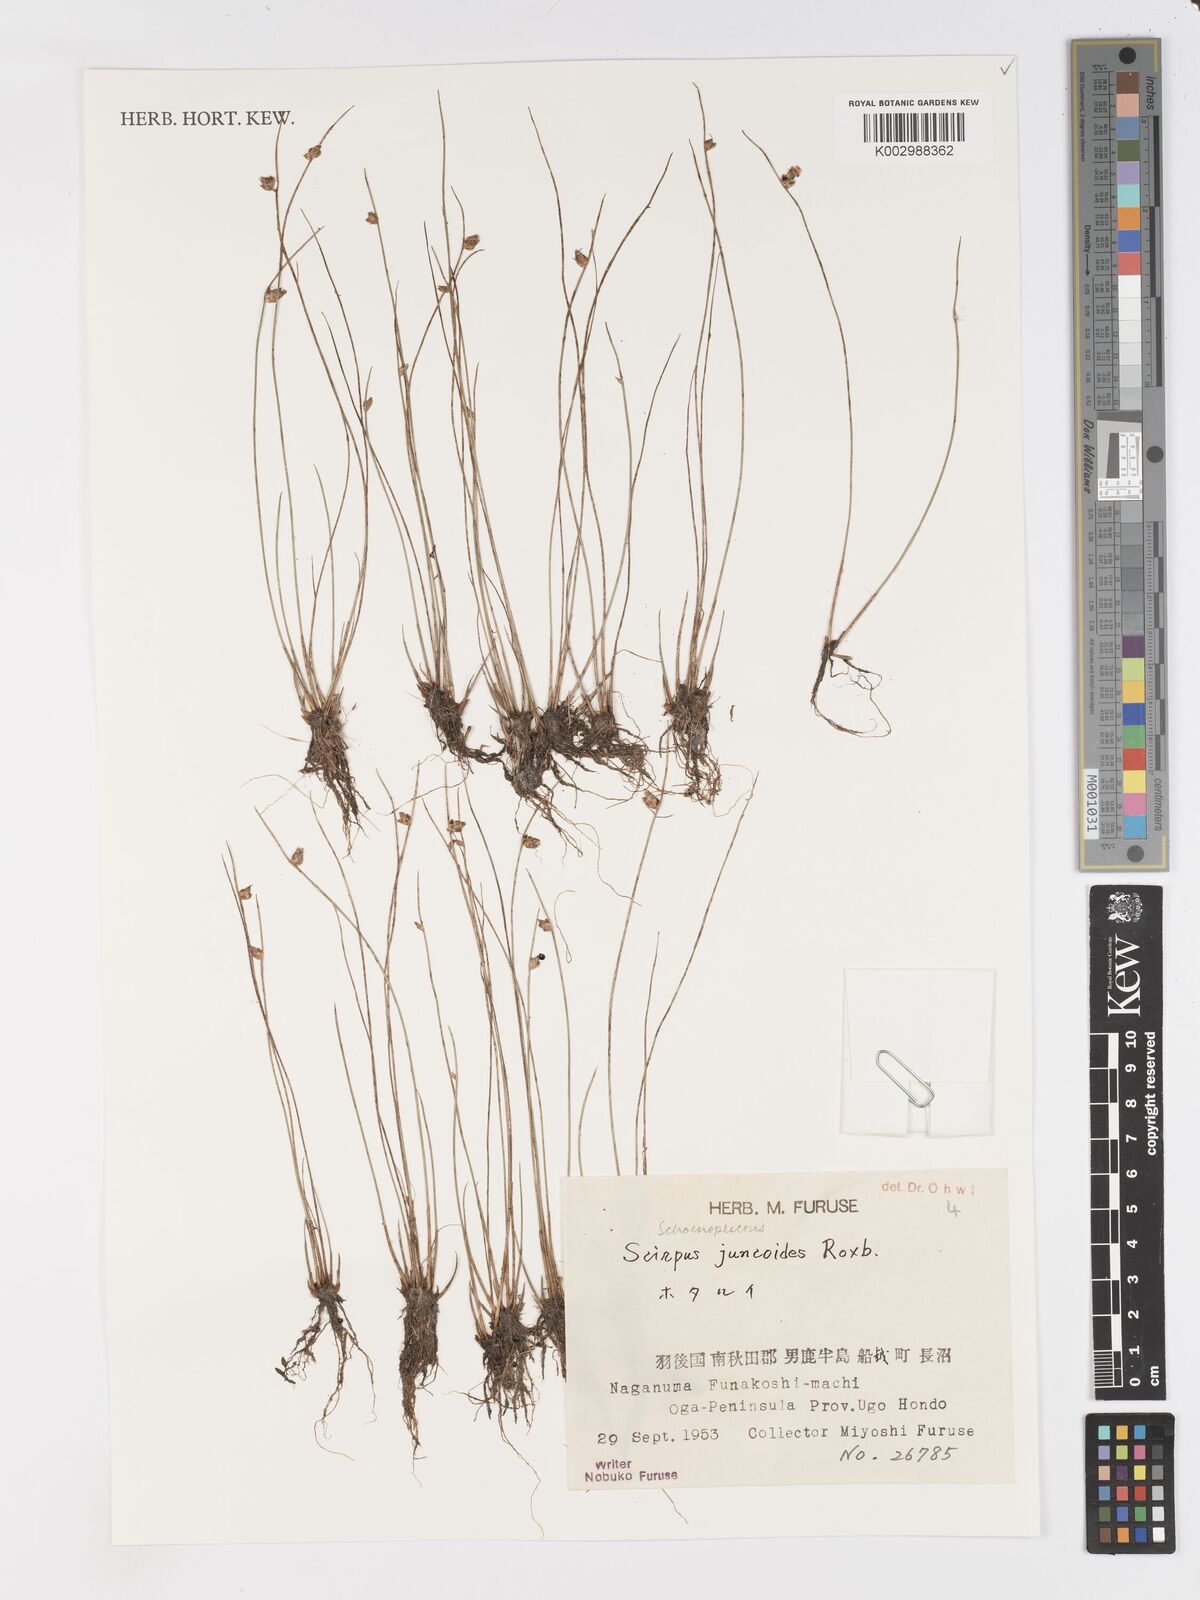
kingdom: Plantae
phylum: Tracheophyta
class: Liliopsida
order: Poales
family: Cyperaceae
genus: Schoenoplectiella
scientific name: Schoenoplectiella juncoides
